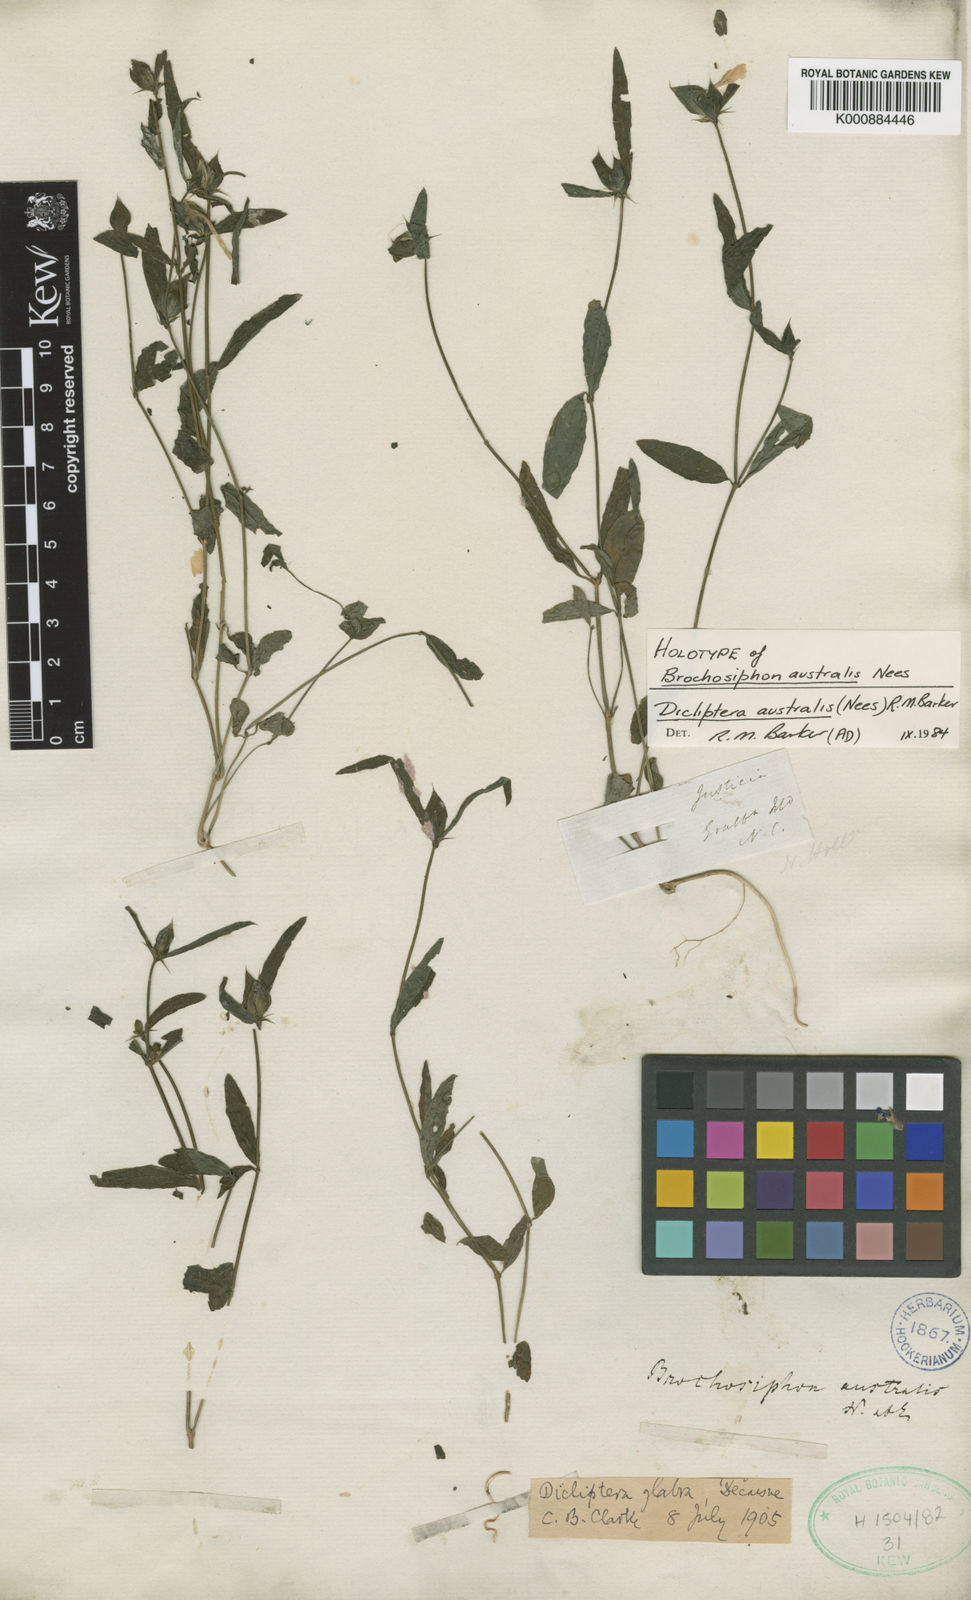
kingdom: Plantae
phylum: Tracheophyta
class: Magnoliopsida
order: Lamiales
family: Acanthaceae
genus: Dicliptera
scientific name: Dicliptera australis
